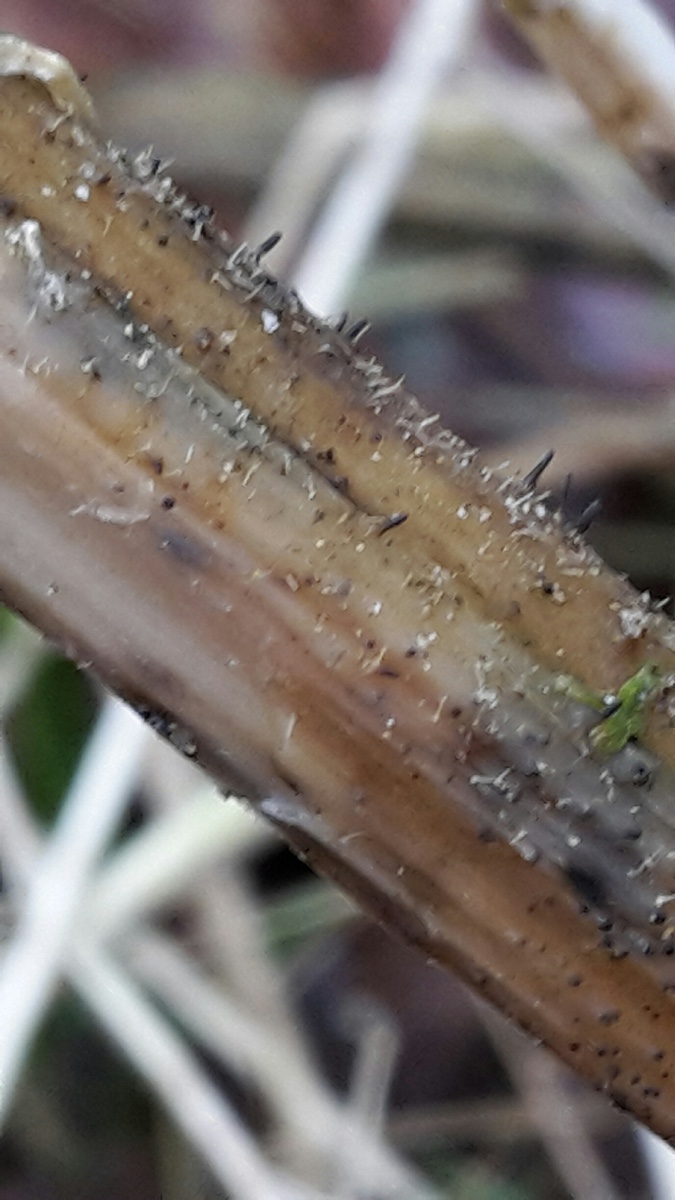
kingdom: Fungi
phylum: Ascomycota
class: Dothideomycetes
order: Acrospermales
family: Acrospermaceae
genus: Acrospermum
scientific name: Acrospermum compressum
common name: nælde-stængeltunge
